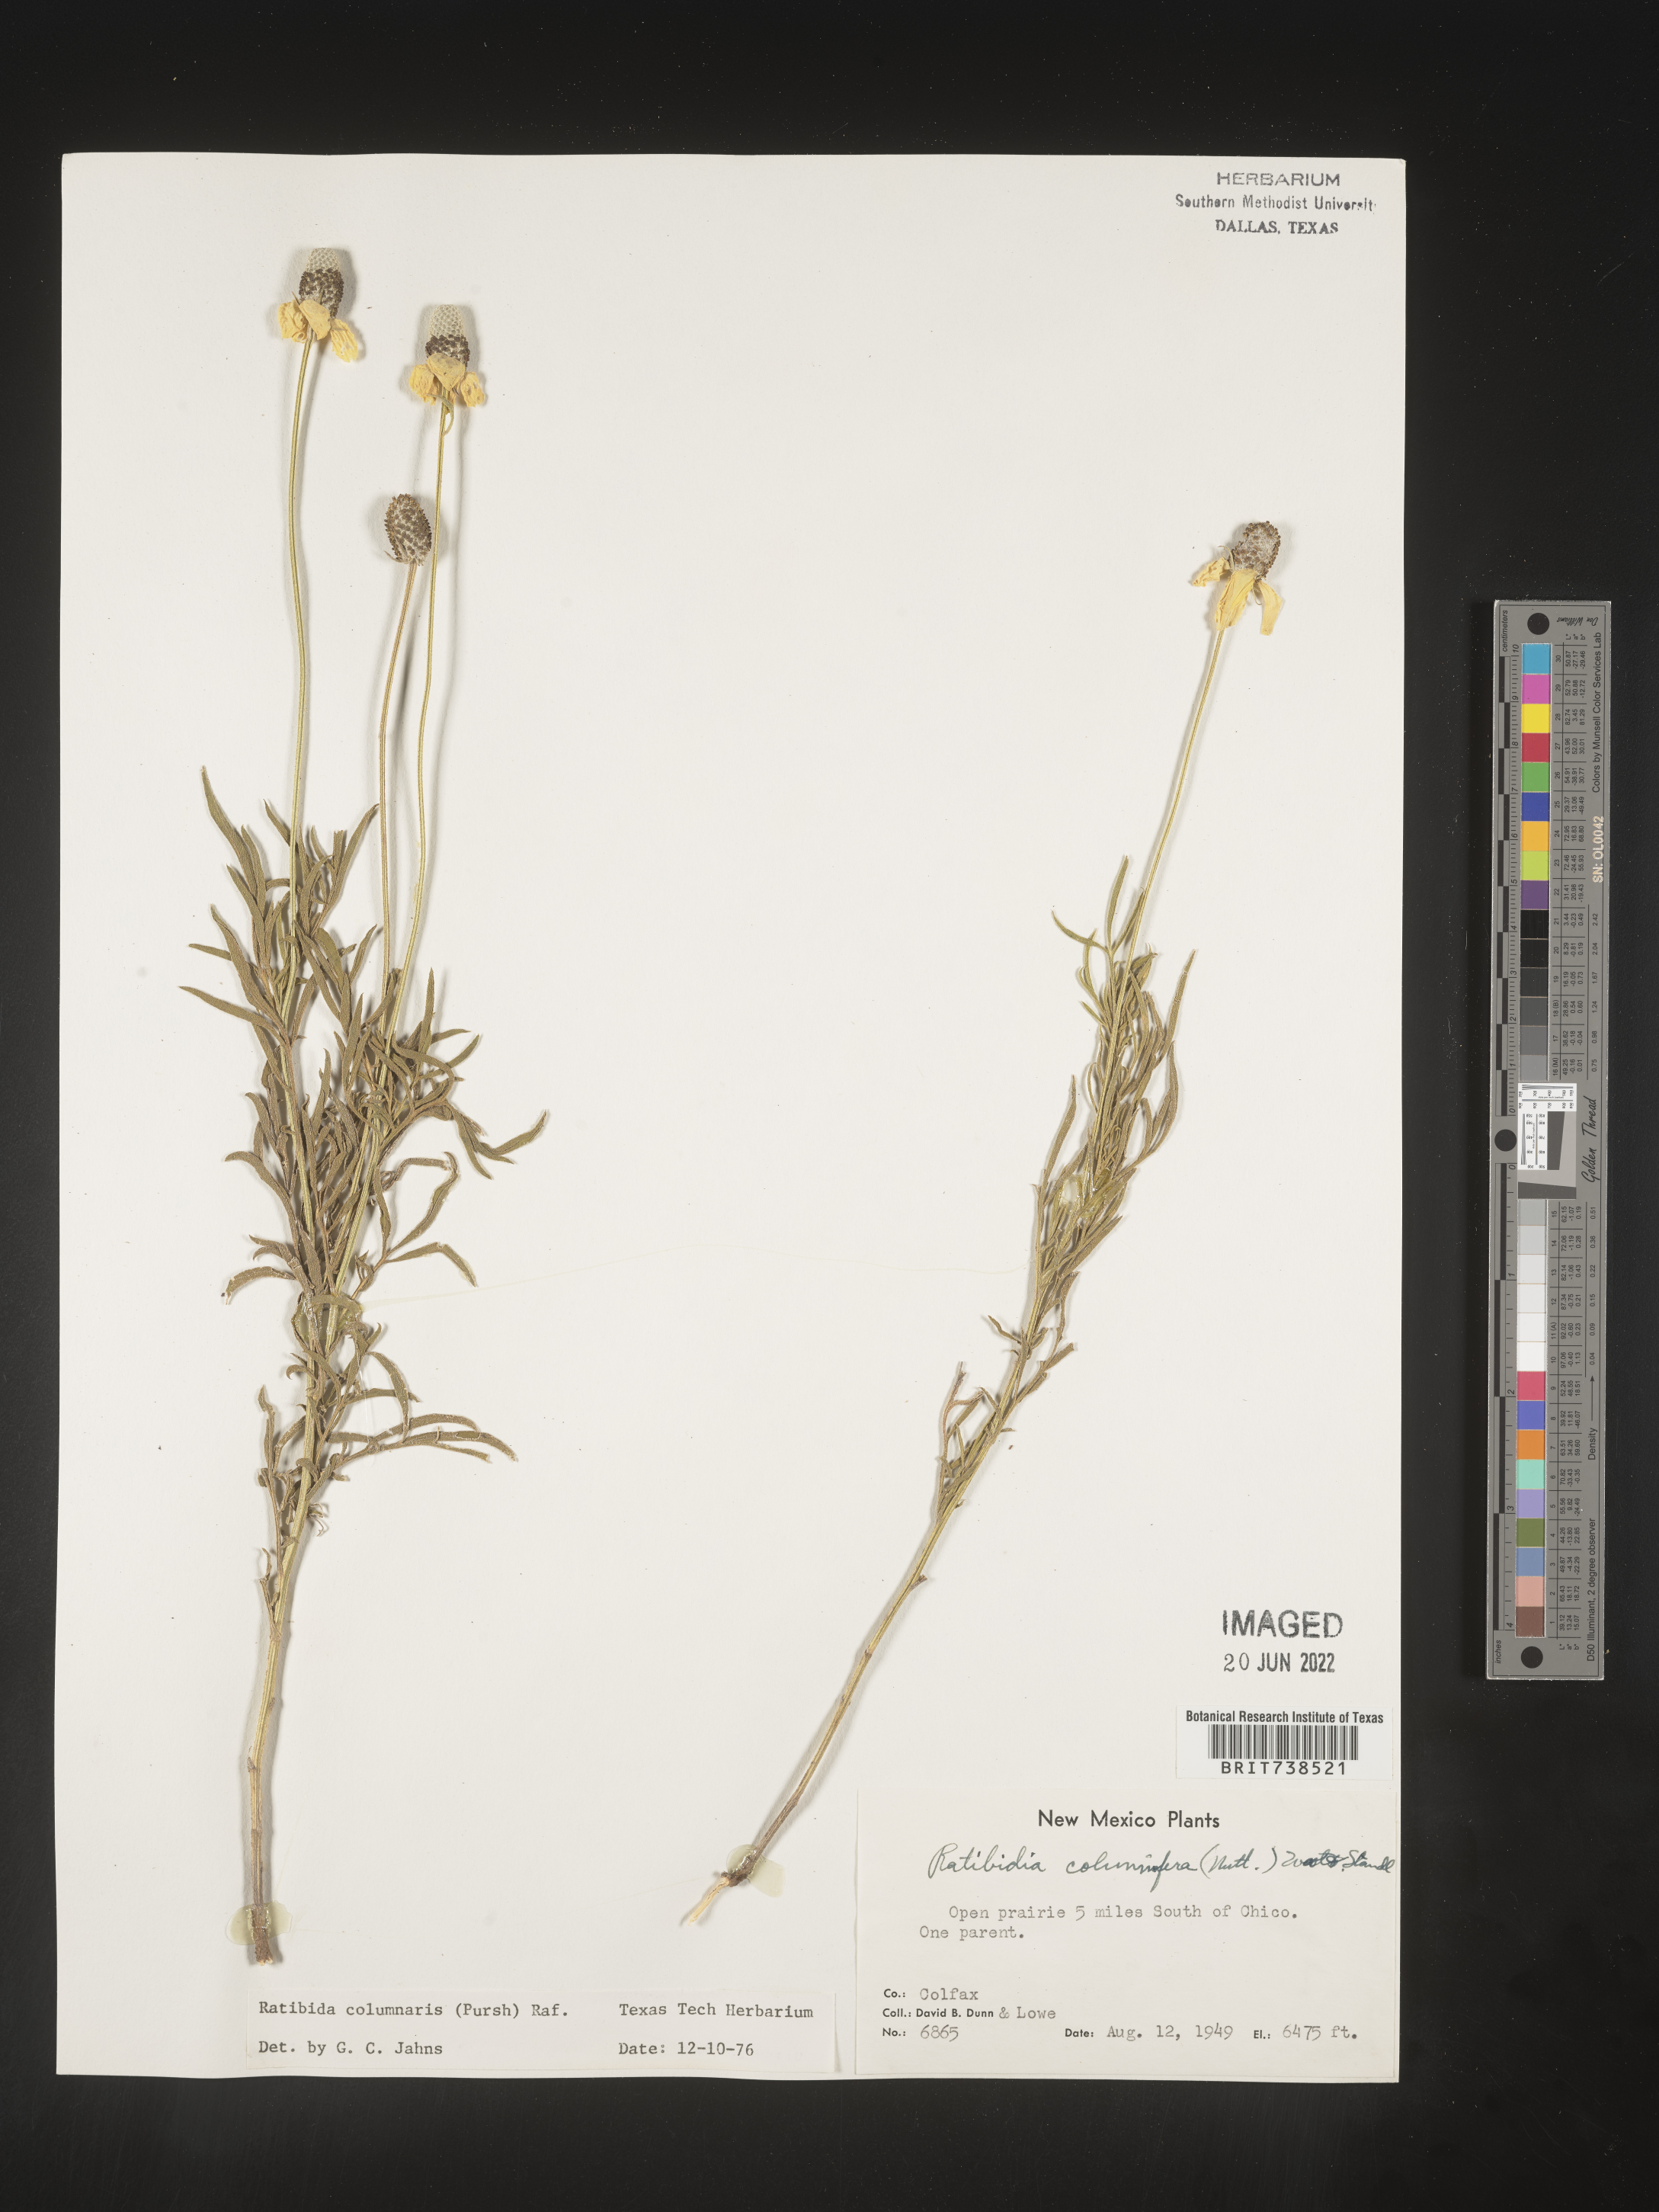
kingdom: Plantae
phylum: Tracheophyta
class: Magnoliopsida
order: Asterales
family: Asteraceae
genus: Ratibida
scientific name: Ratibida columnifera
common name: Prairie coneflower
